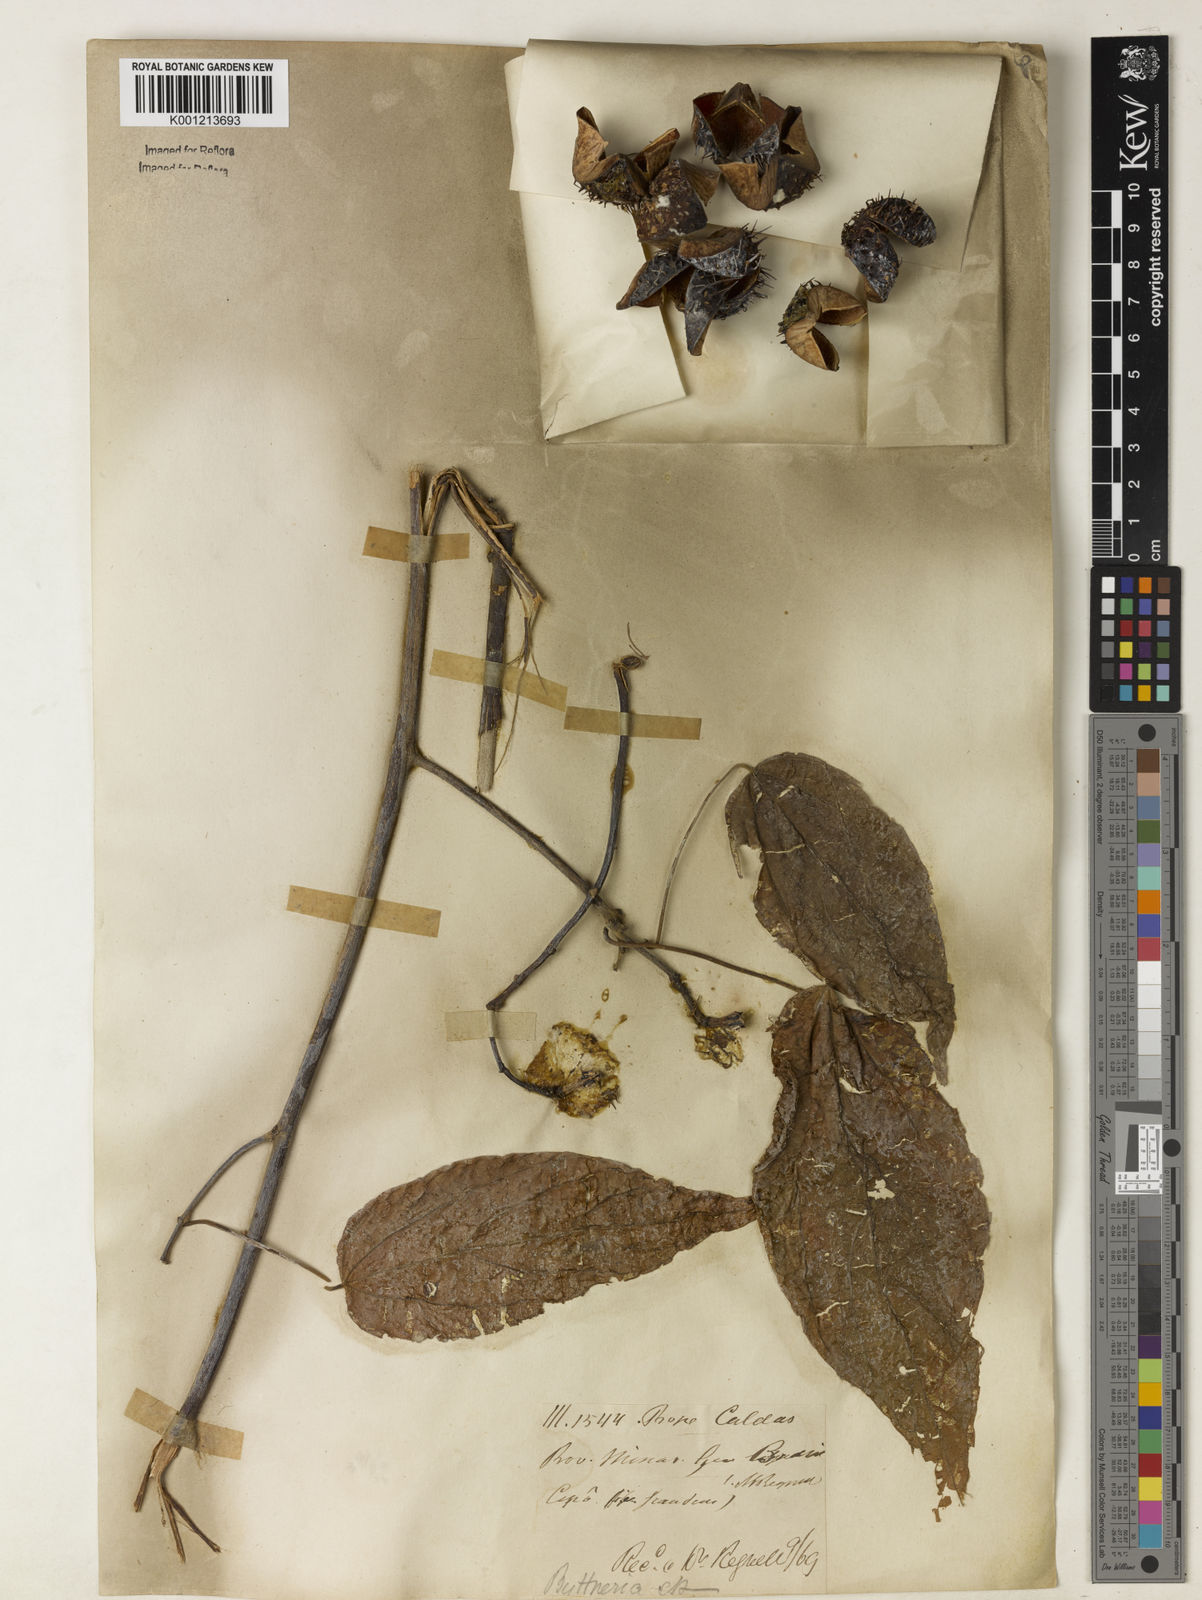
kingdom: Plantae
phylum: Tracheophyta
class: Magnoliopsida
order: Malvales
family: Malvaceae
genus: Byttneria
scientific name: Byttneria catalpifolia
